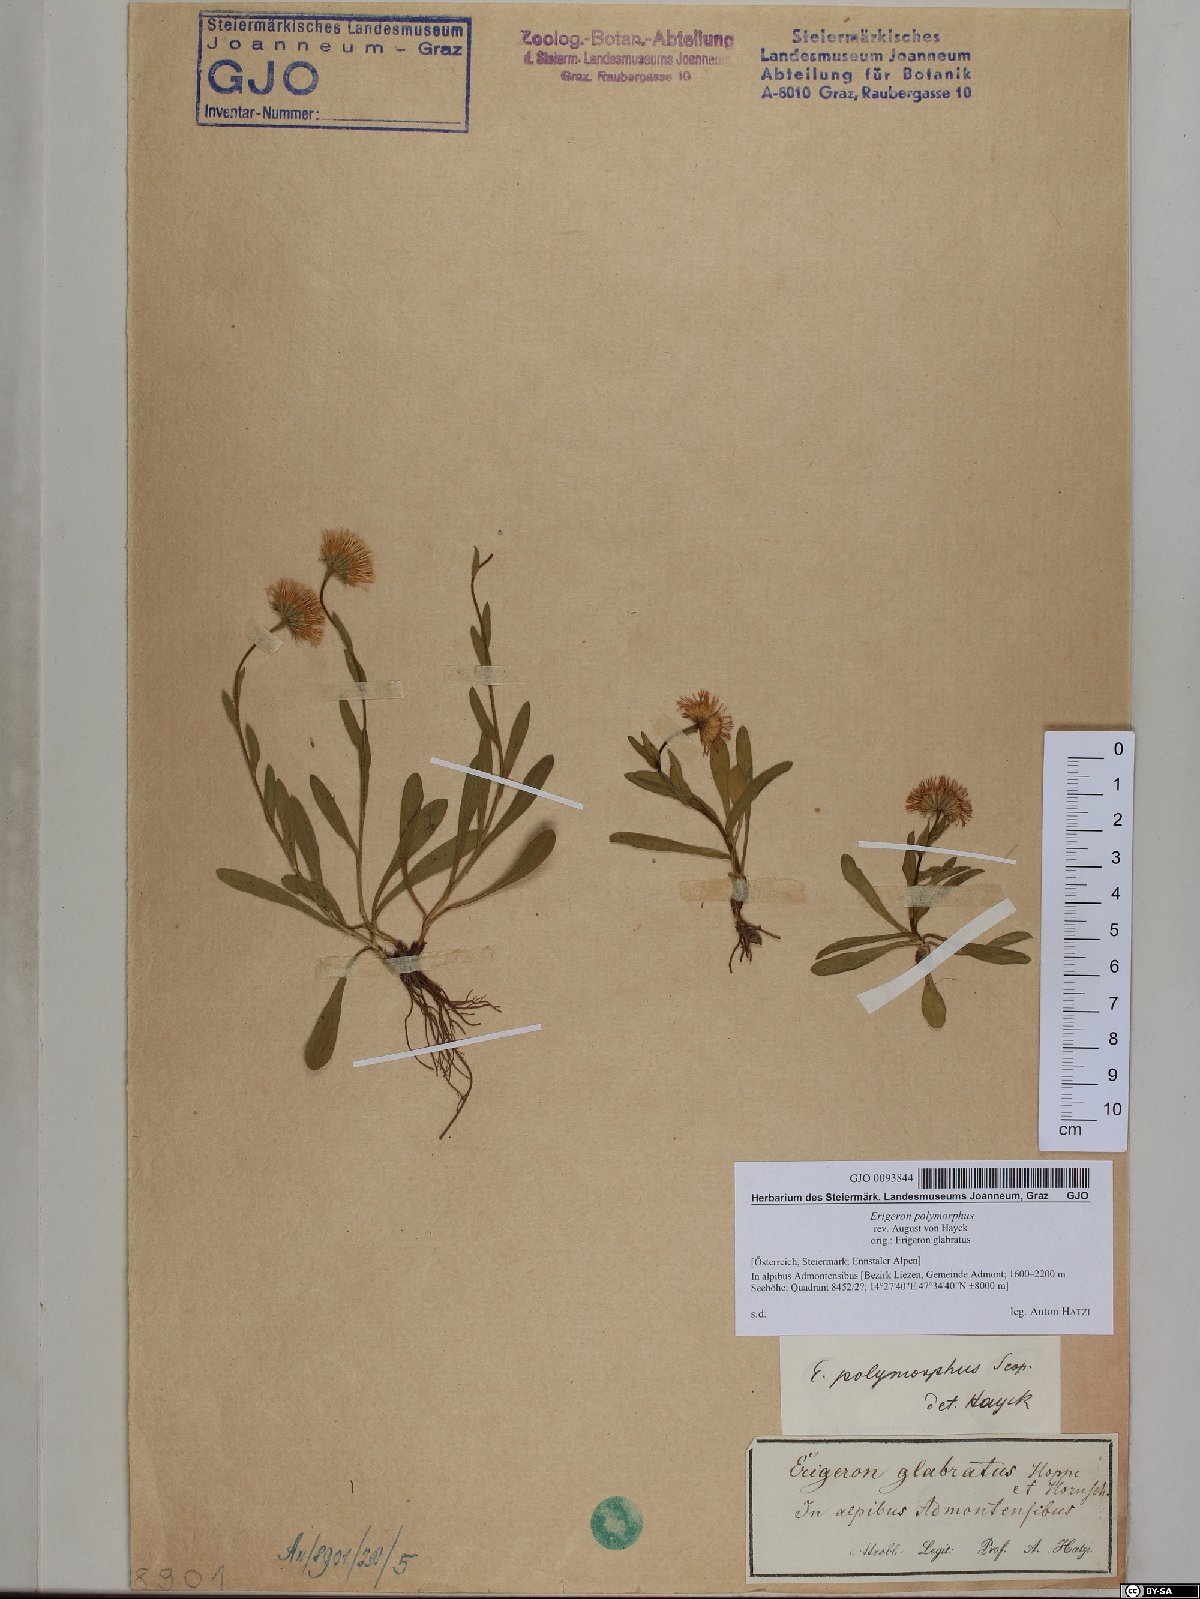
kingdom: Plantae
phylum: Tracheophyta
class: Magnoliopsida
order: Asterales
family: Asteraceae
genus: Erigeron
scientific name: Erigeron alpinus
